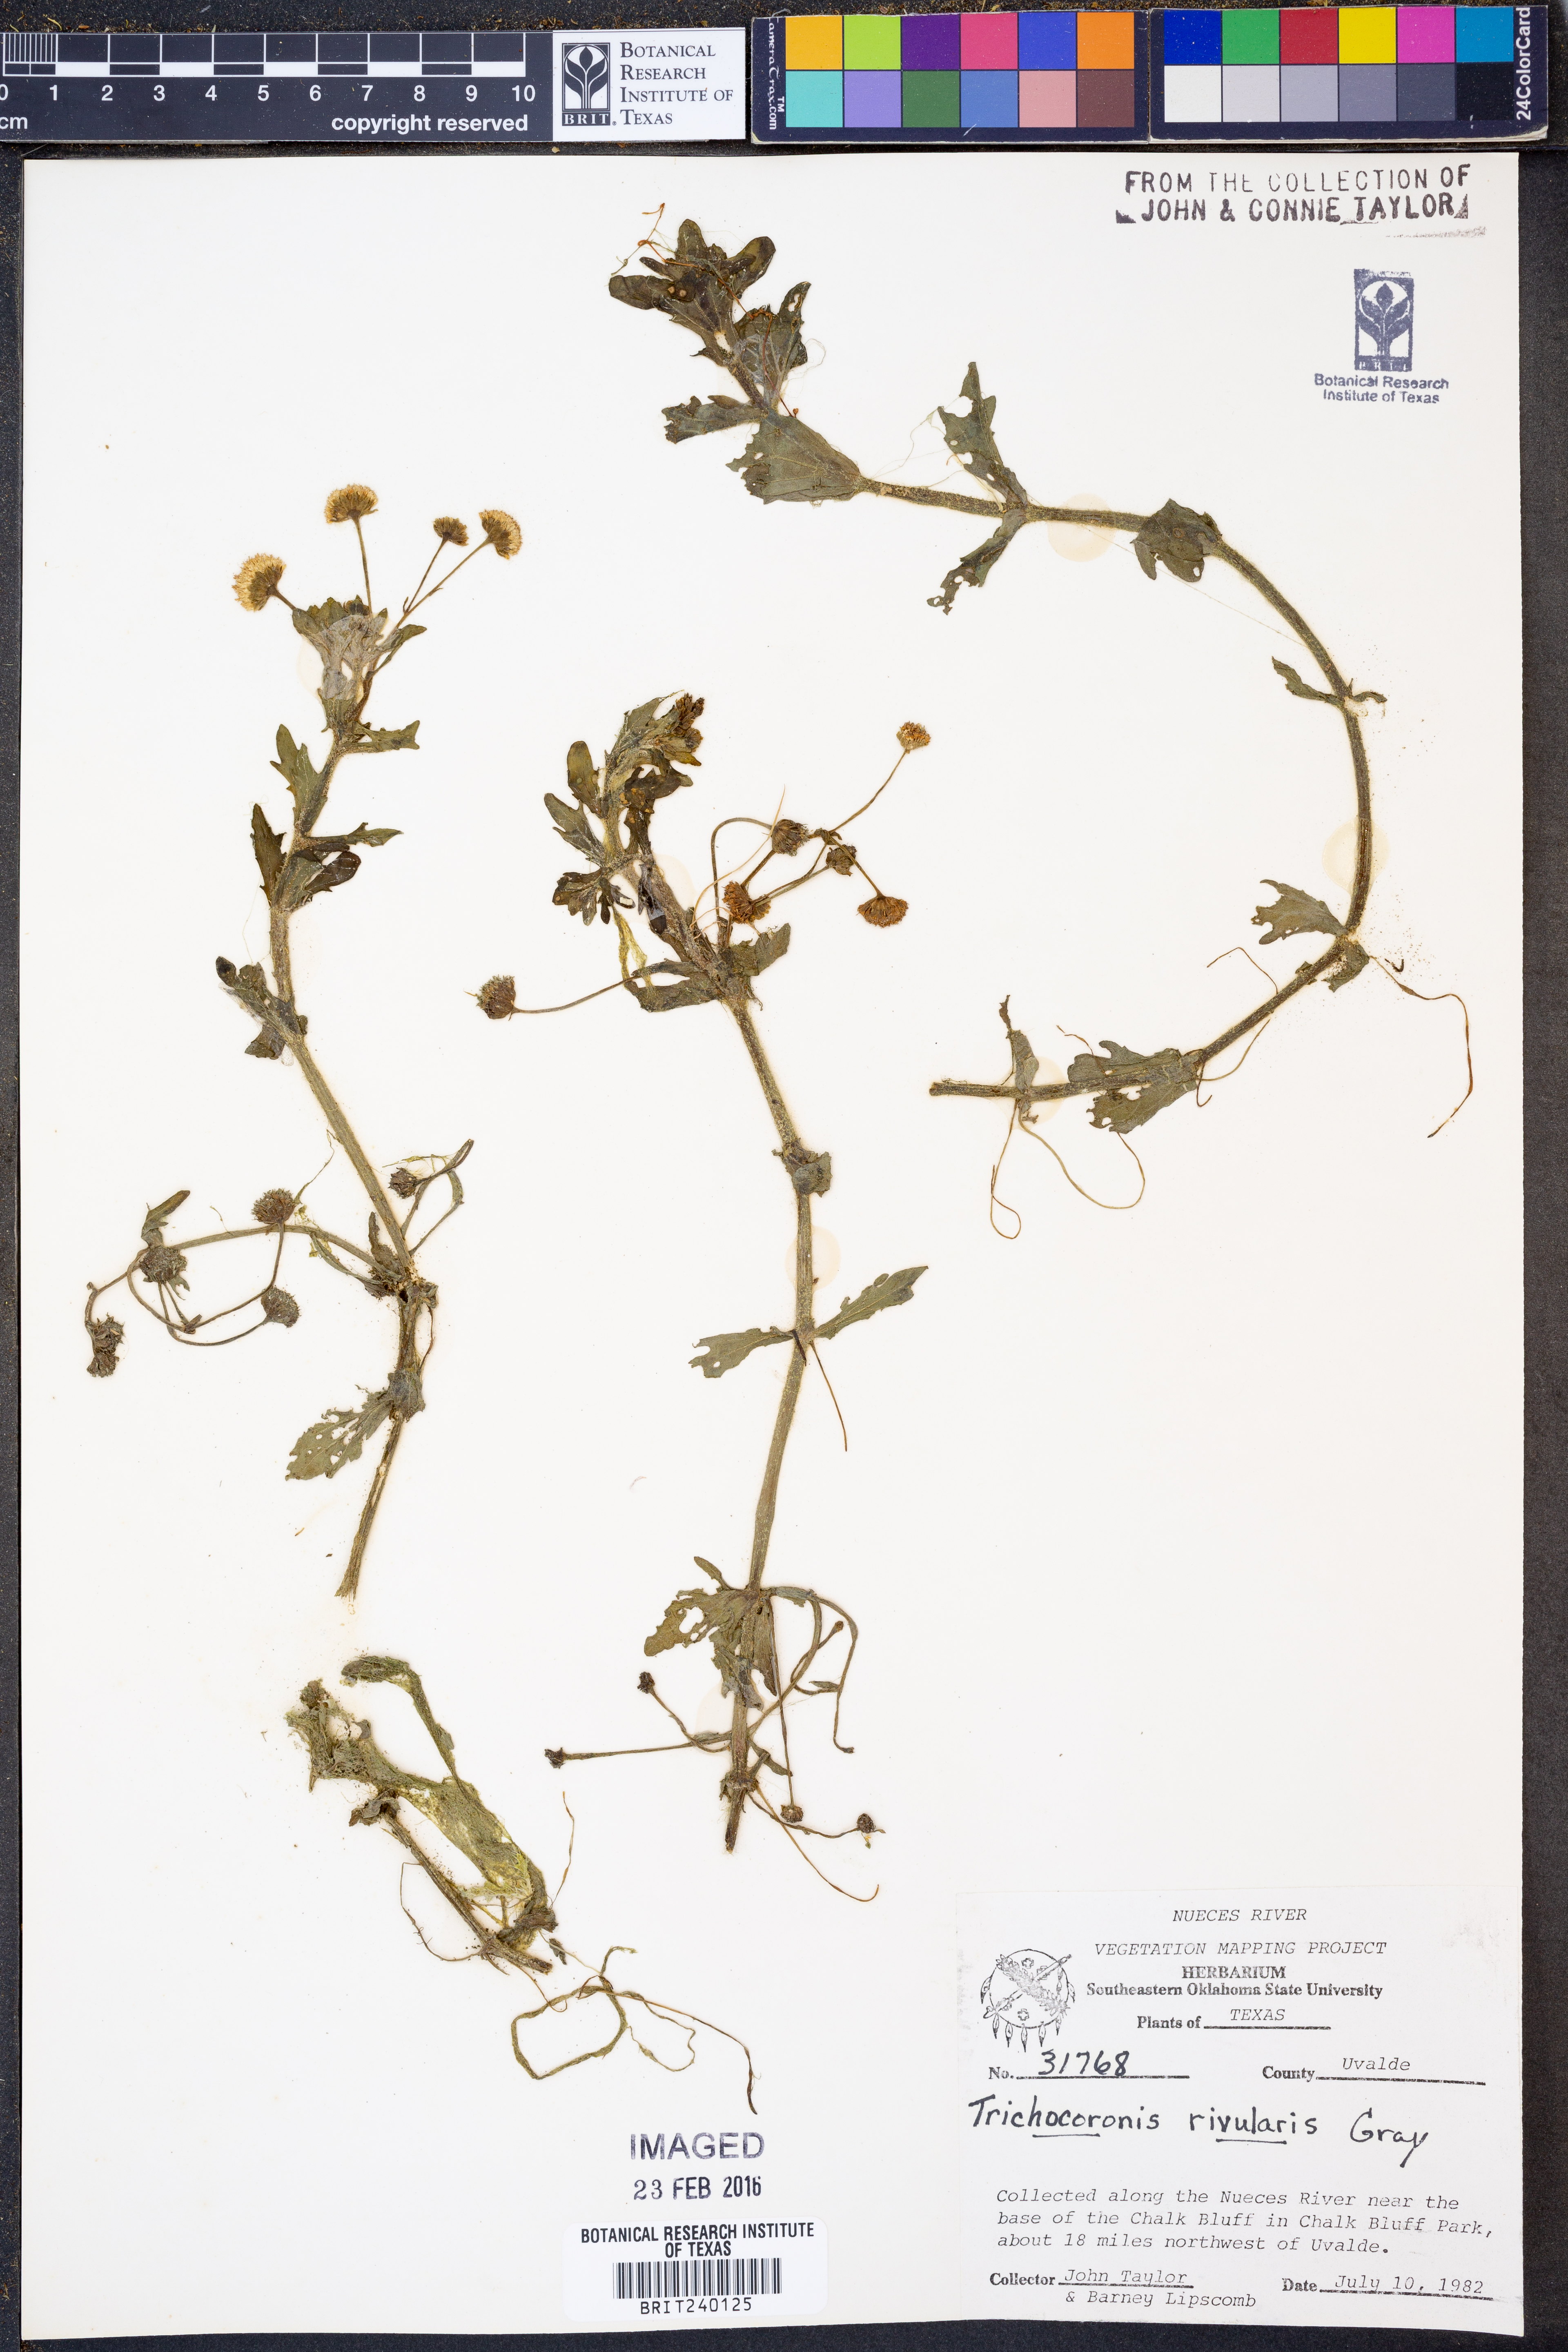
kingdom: Plantae
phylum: Tracheophyta
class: Magnoliopsida
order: Asterales
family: Asteraceae
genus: Shinnersia
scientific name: Shinnersia rivularis
